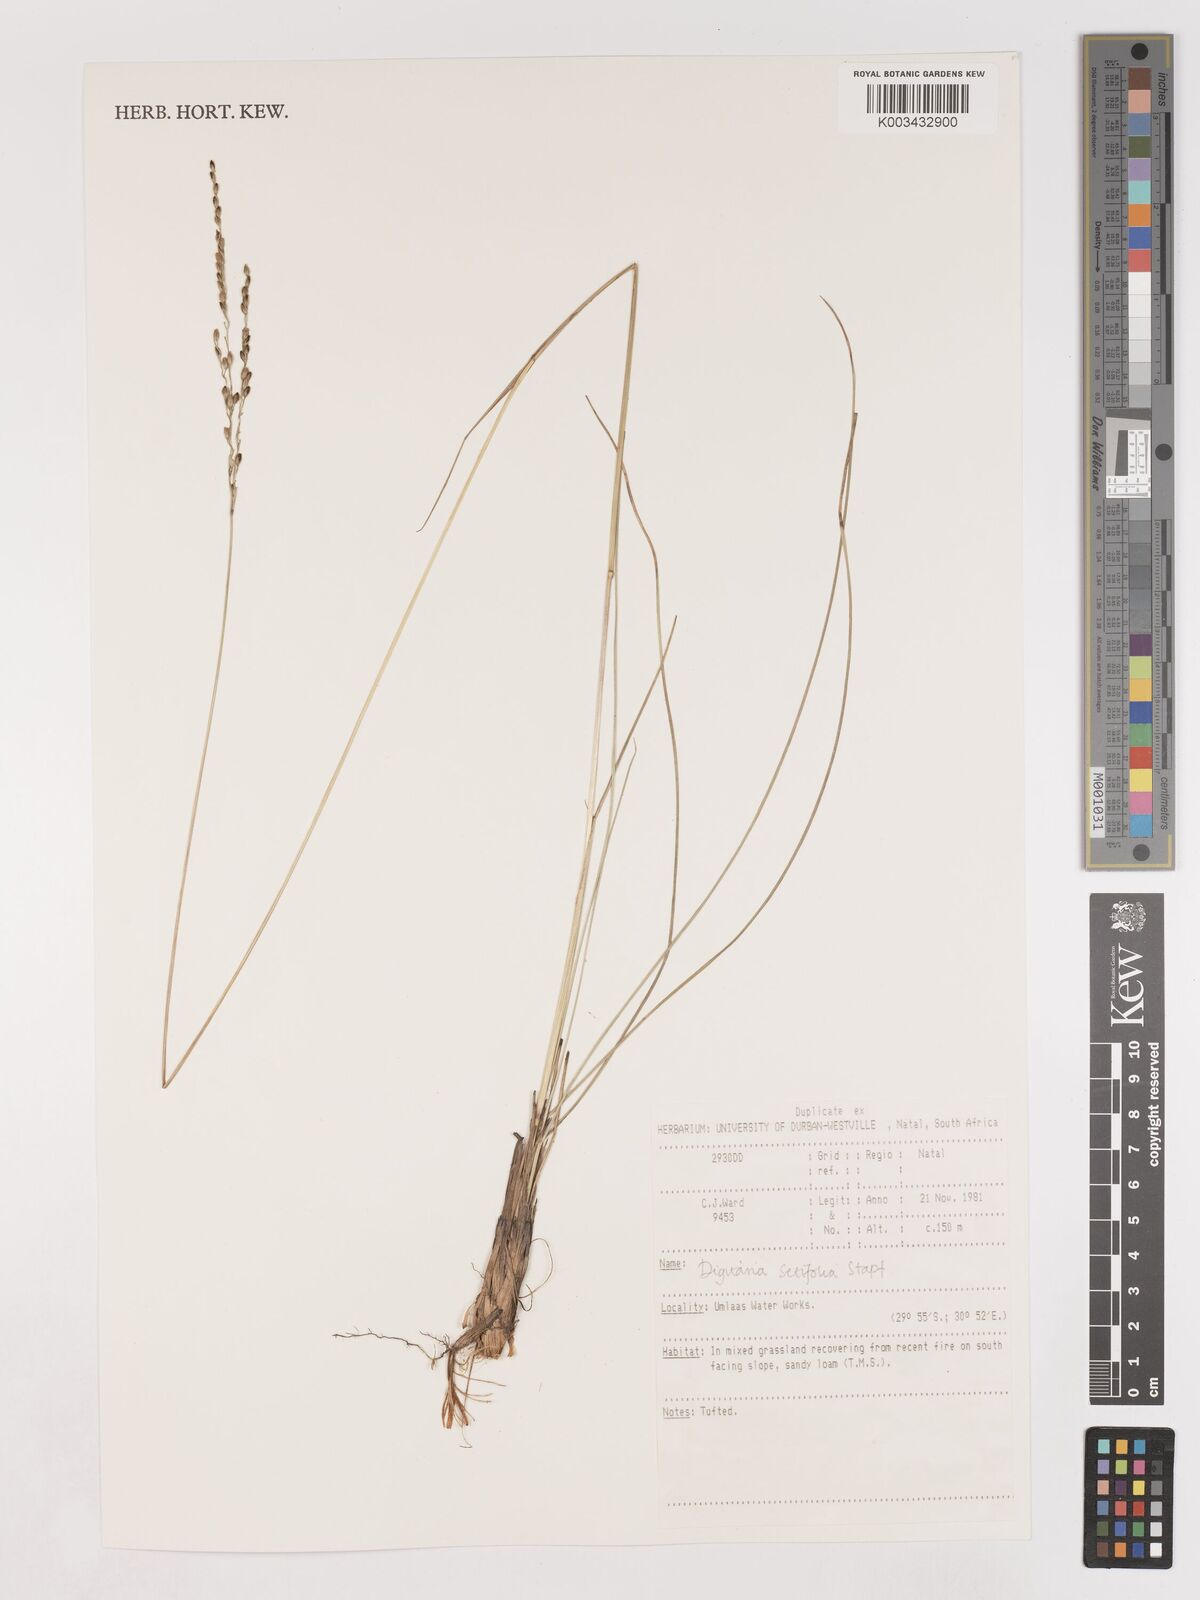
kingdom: Plantae
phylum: Tracheophyta
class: Liliopsida
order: Poales
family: Poaceae
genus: Digitaria
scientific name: Digitaria setifolia
